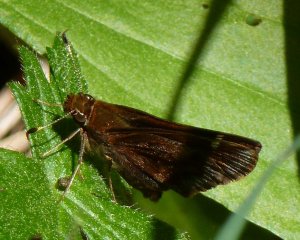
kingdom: Animalia
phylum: Arthropoda
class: Insecta
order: Lepidoptera
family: Hesperiidae
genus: Autochton
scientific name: Autochton
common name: Northern Cloudywing
